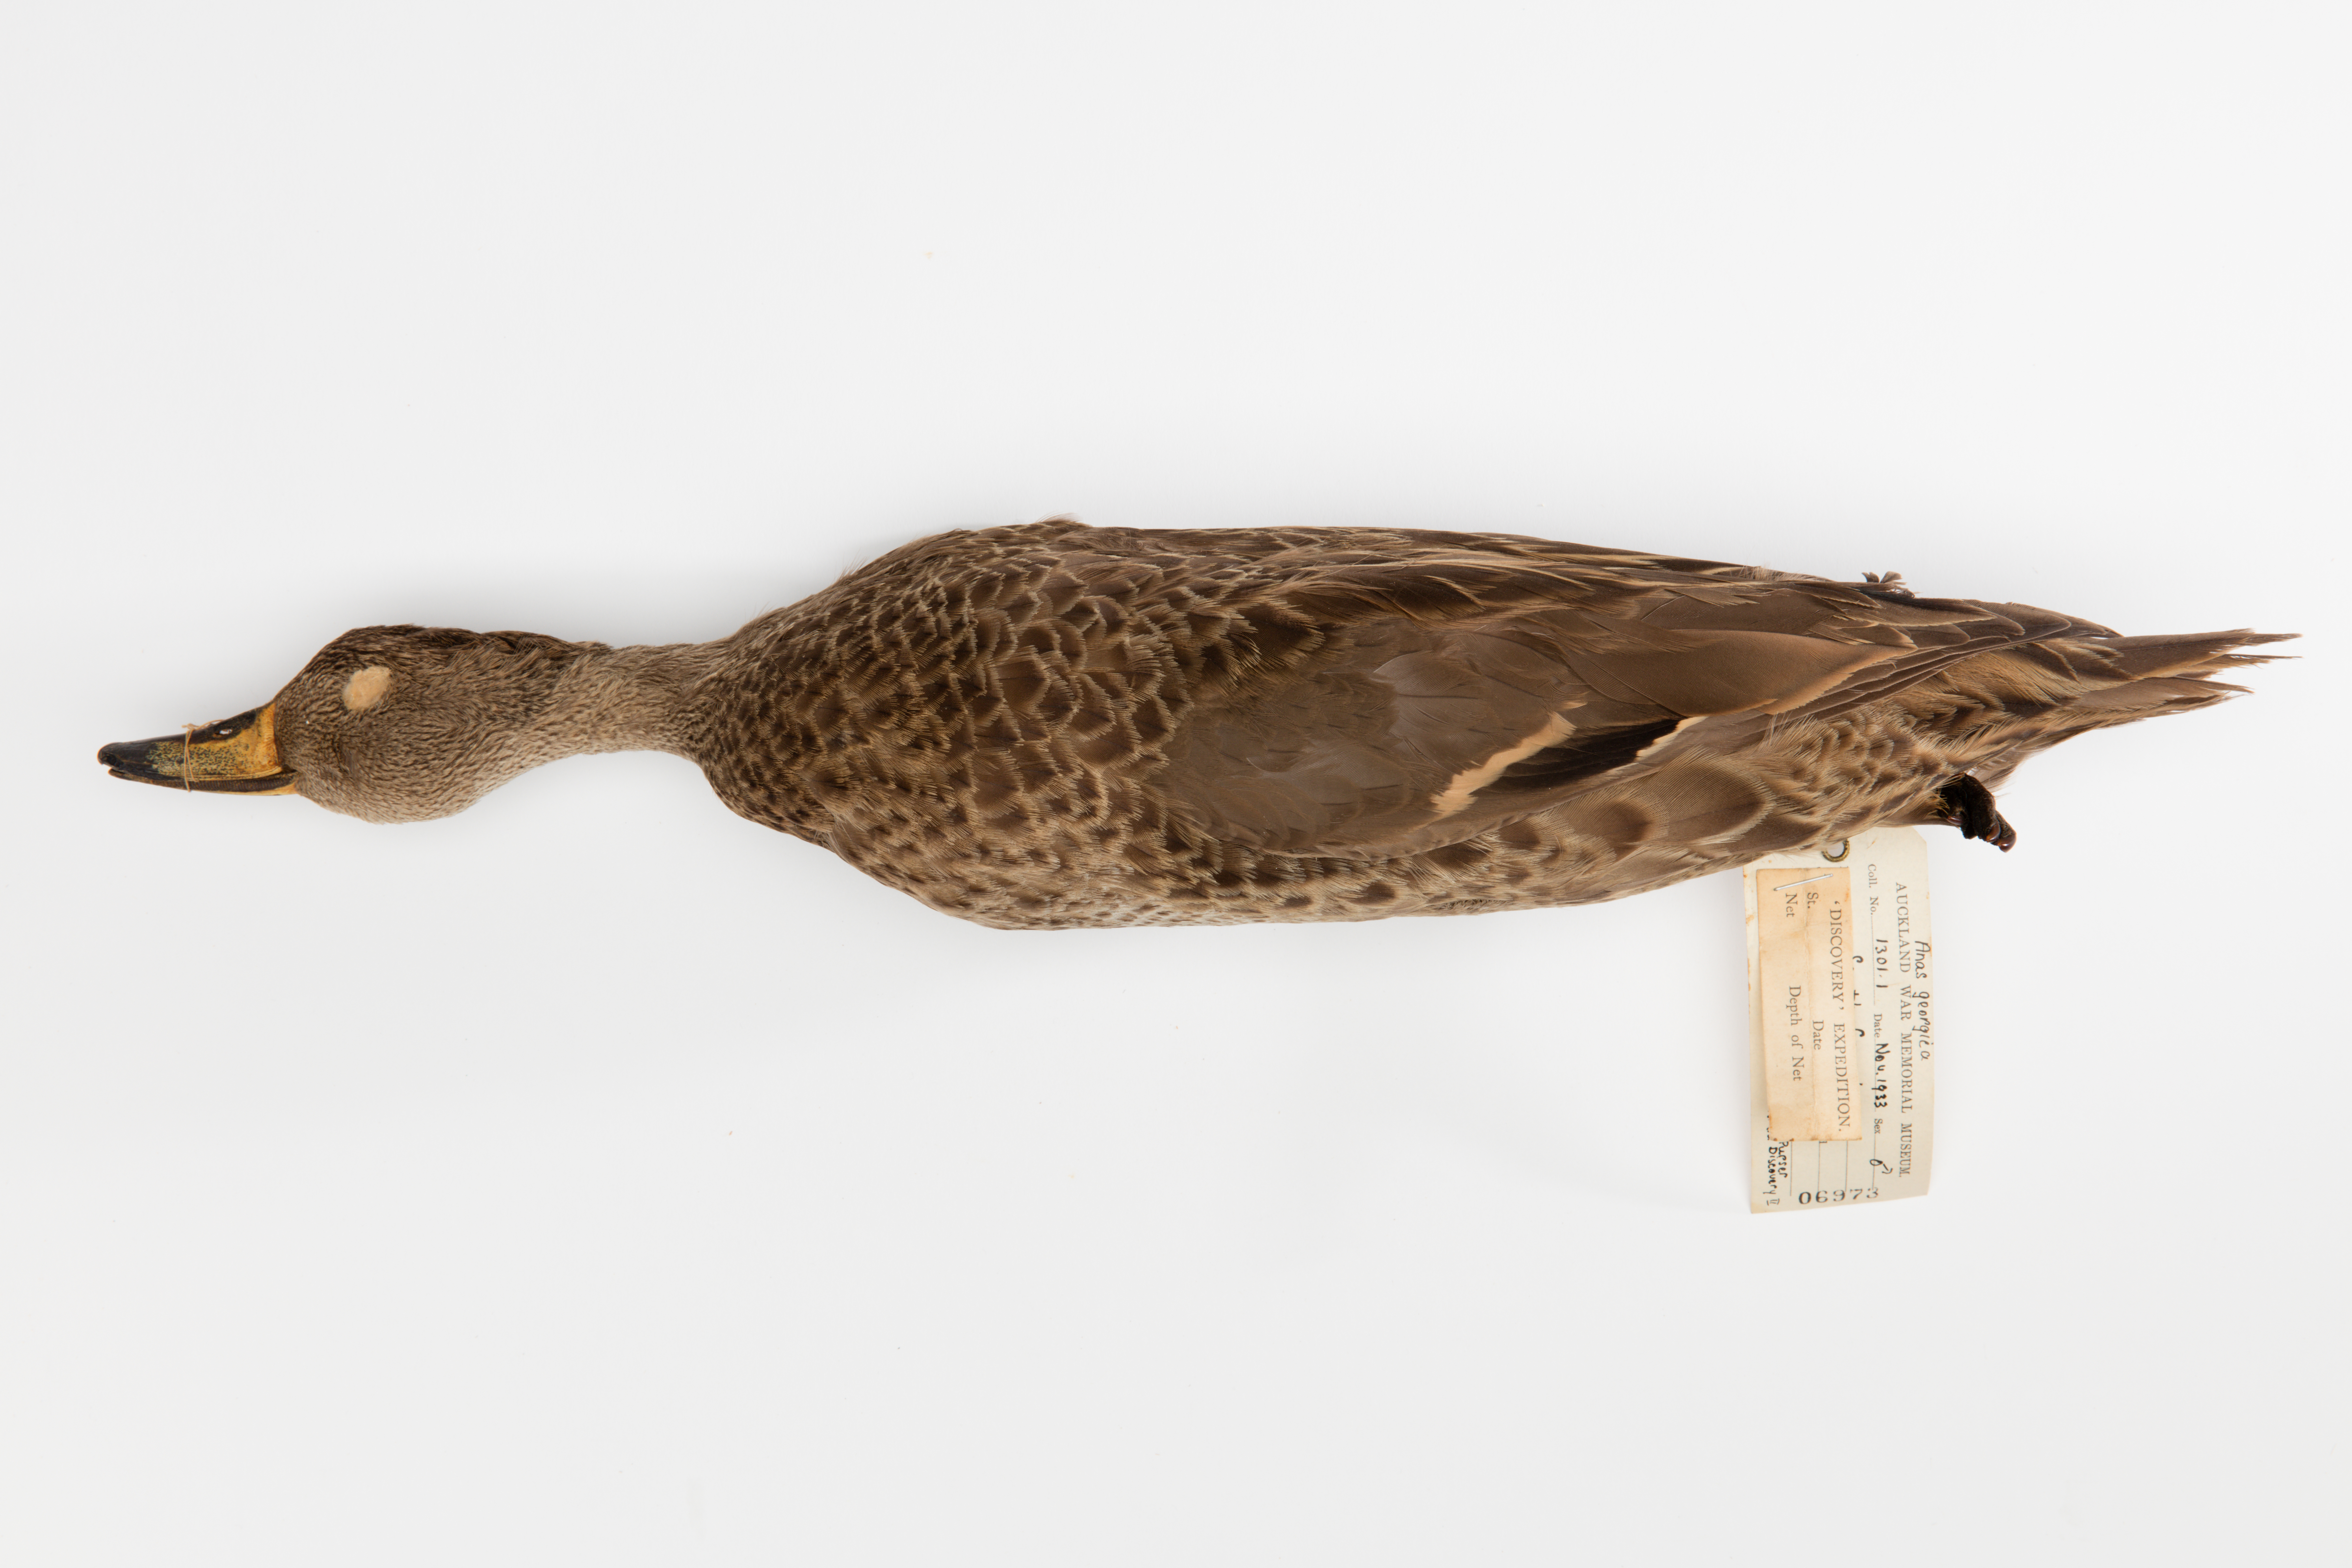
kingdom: Animalia
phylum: Chordata
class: Aves
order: Anseriformes
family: Anatidae
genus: Anas
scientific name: Anas georgica
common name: Yellow-billed pintail
